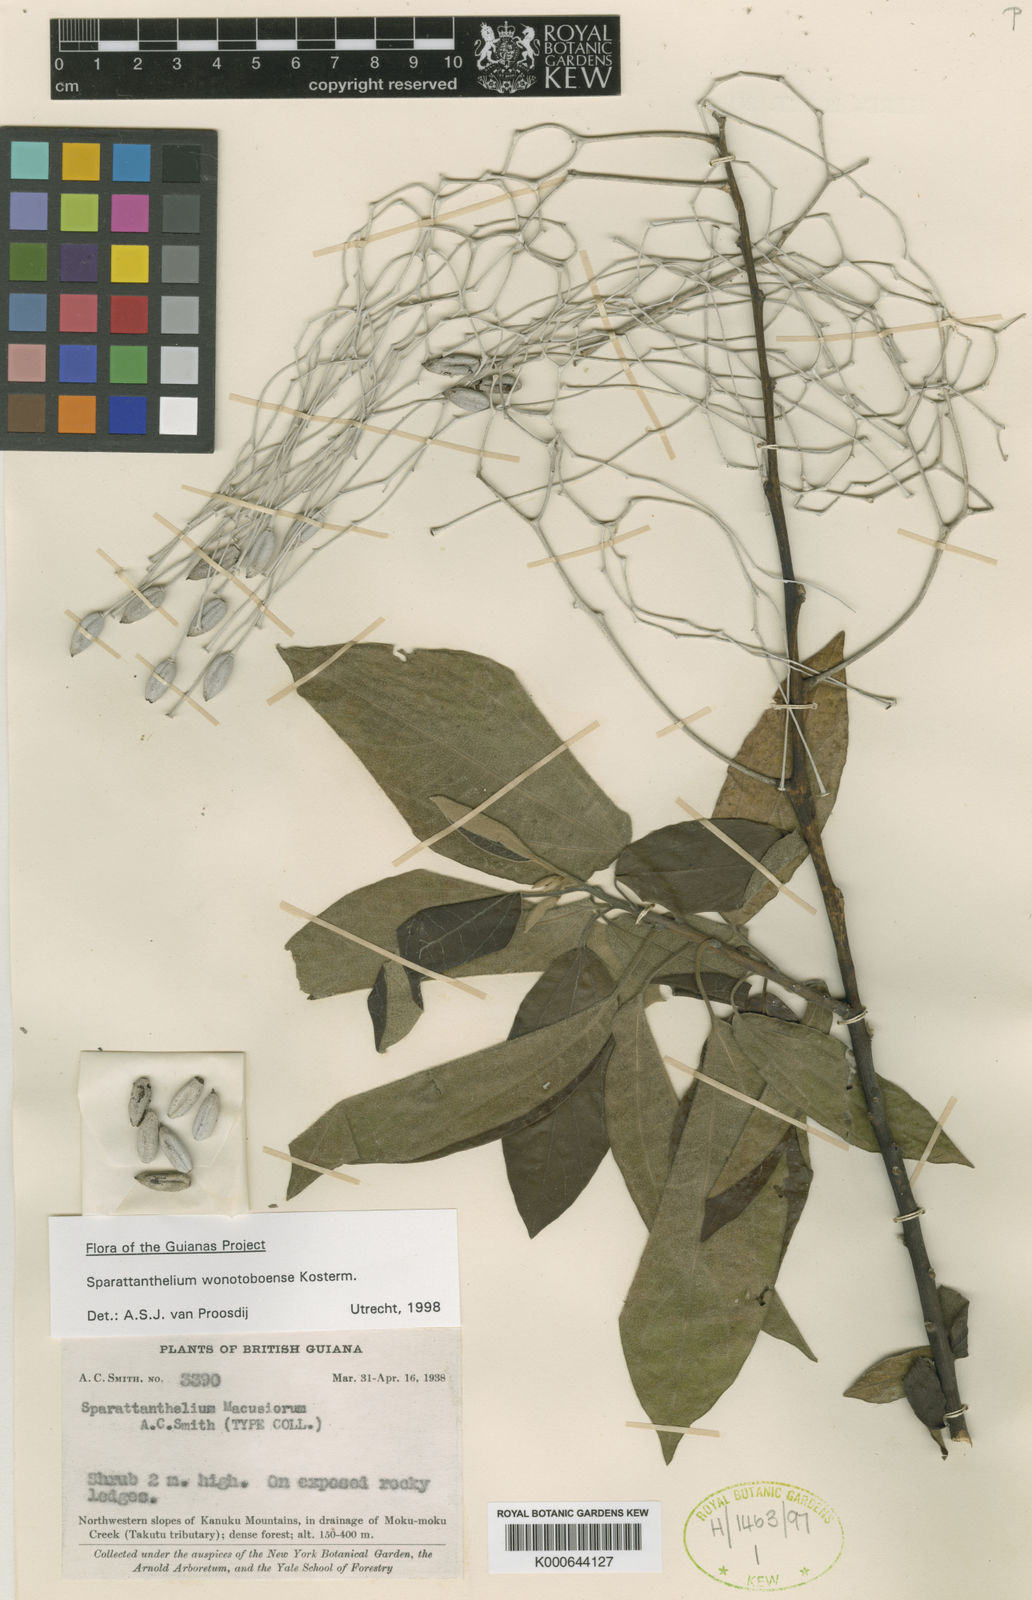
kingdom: Plantae
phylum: Tracheophyta
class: Magnoliopsida
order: Laurales
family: Hernandiaceae
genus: Sparattanthelium
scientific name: Sparattanthelium wonotoboense
